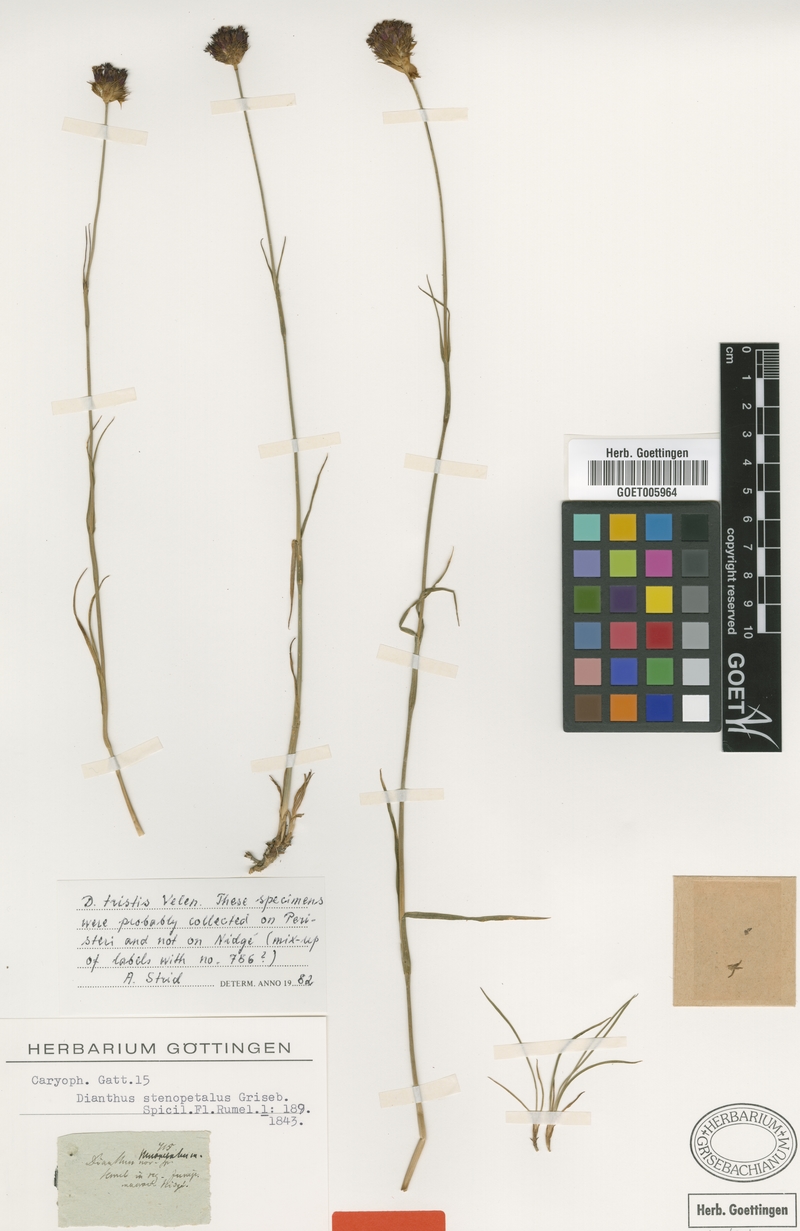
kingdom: Plantae
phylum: Tracheophyta
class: Magnoliopsida
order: Caryophyllales
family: Caryophyllaceae
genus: Dianthus
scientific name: Dianthus stenopetalus
